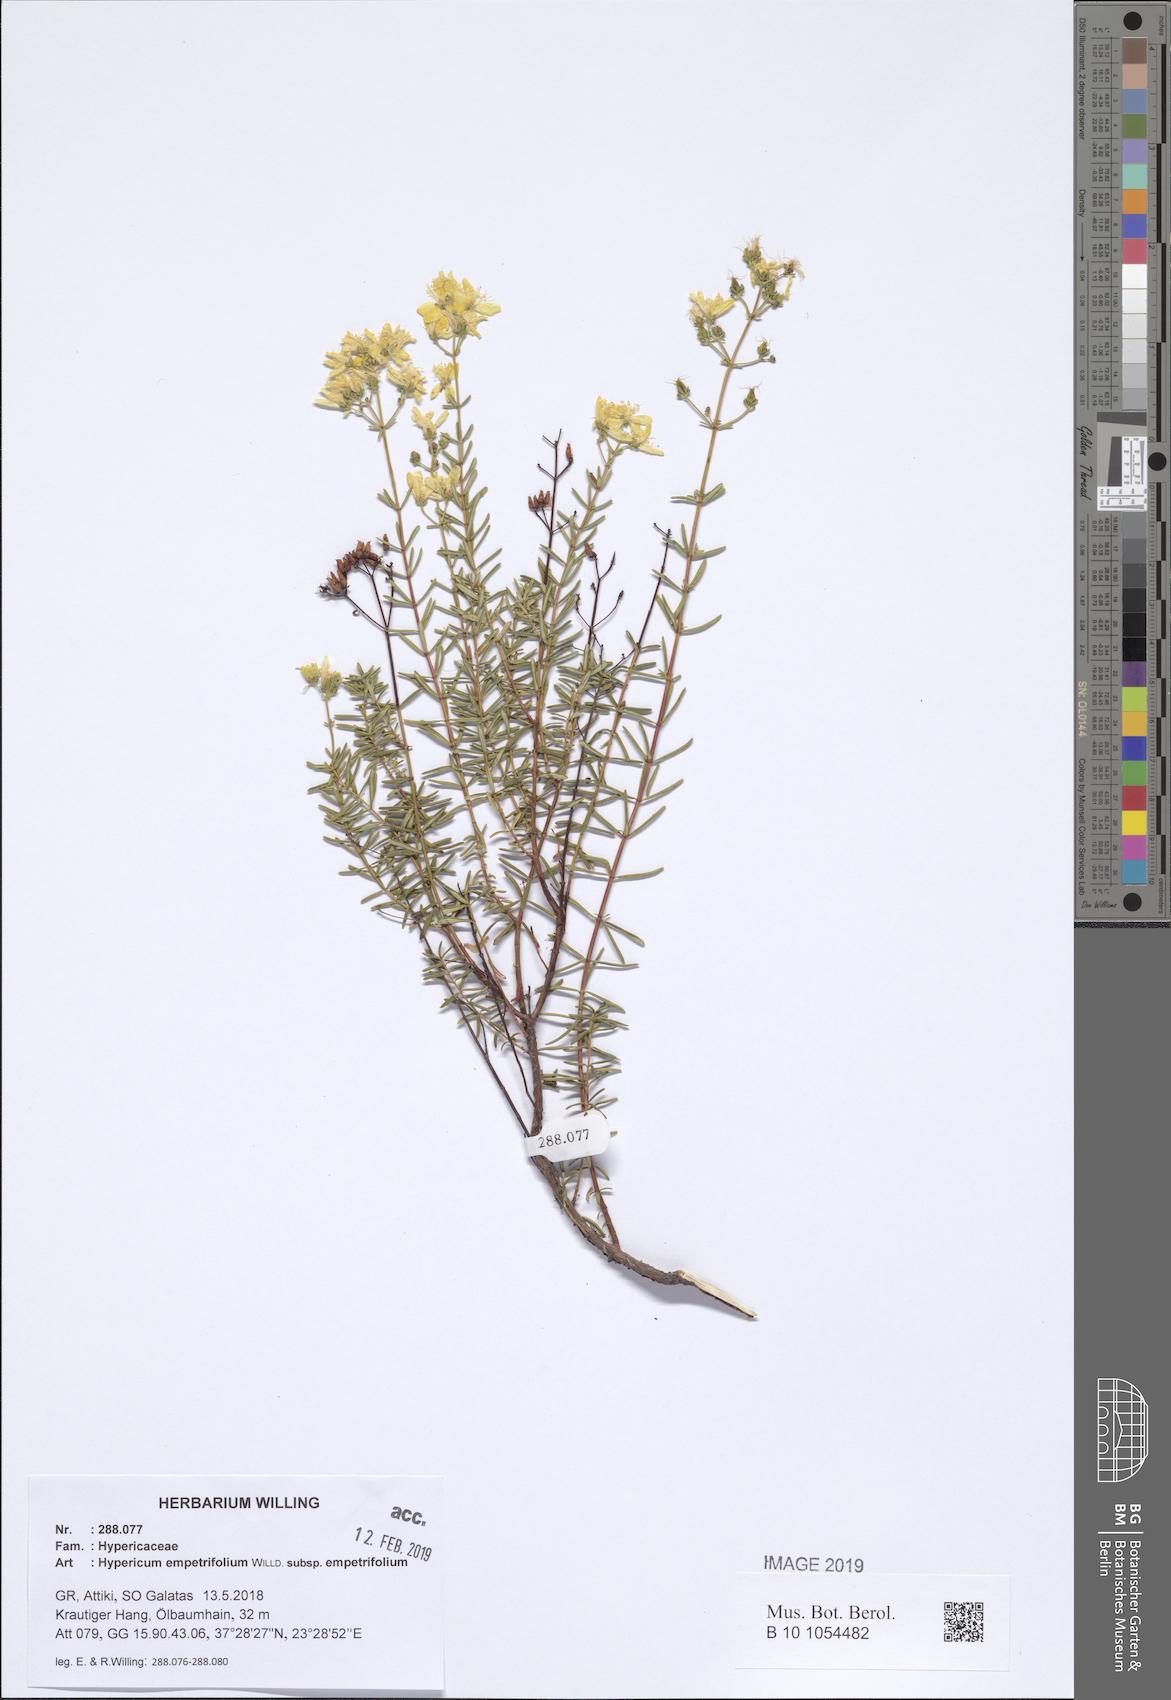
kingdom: Plantae
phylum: Tracheophyta
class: Magnoliopsida
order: Malpighiales
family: Hypericaceae
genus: Hypericum
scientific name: Hypericum empetrifolium
